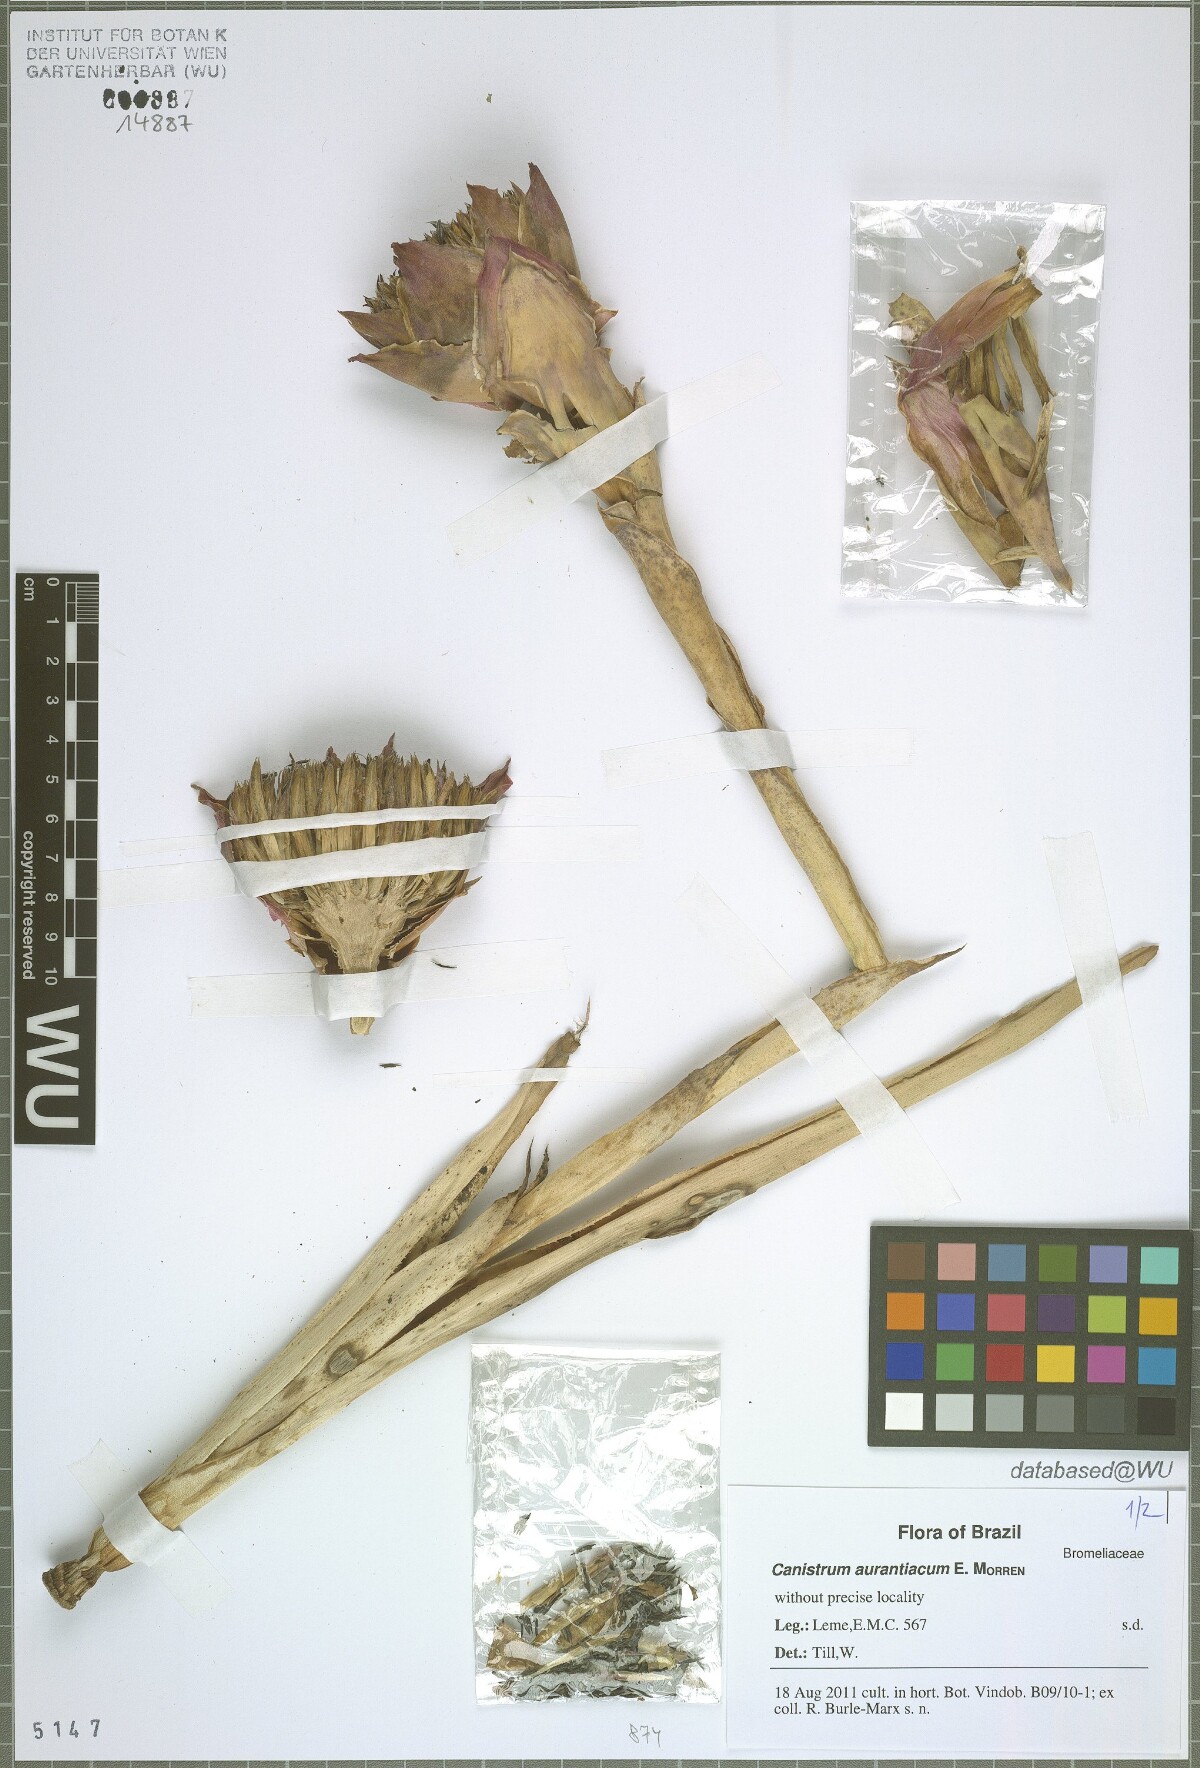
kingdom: Plantae
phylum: Tracheophyta
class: Liliopsida
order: Poales
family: Bromeliaceae
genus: Canistrum
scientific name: Canistrum aurantiacum
